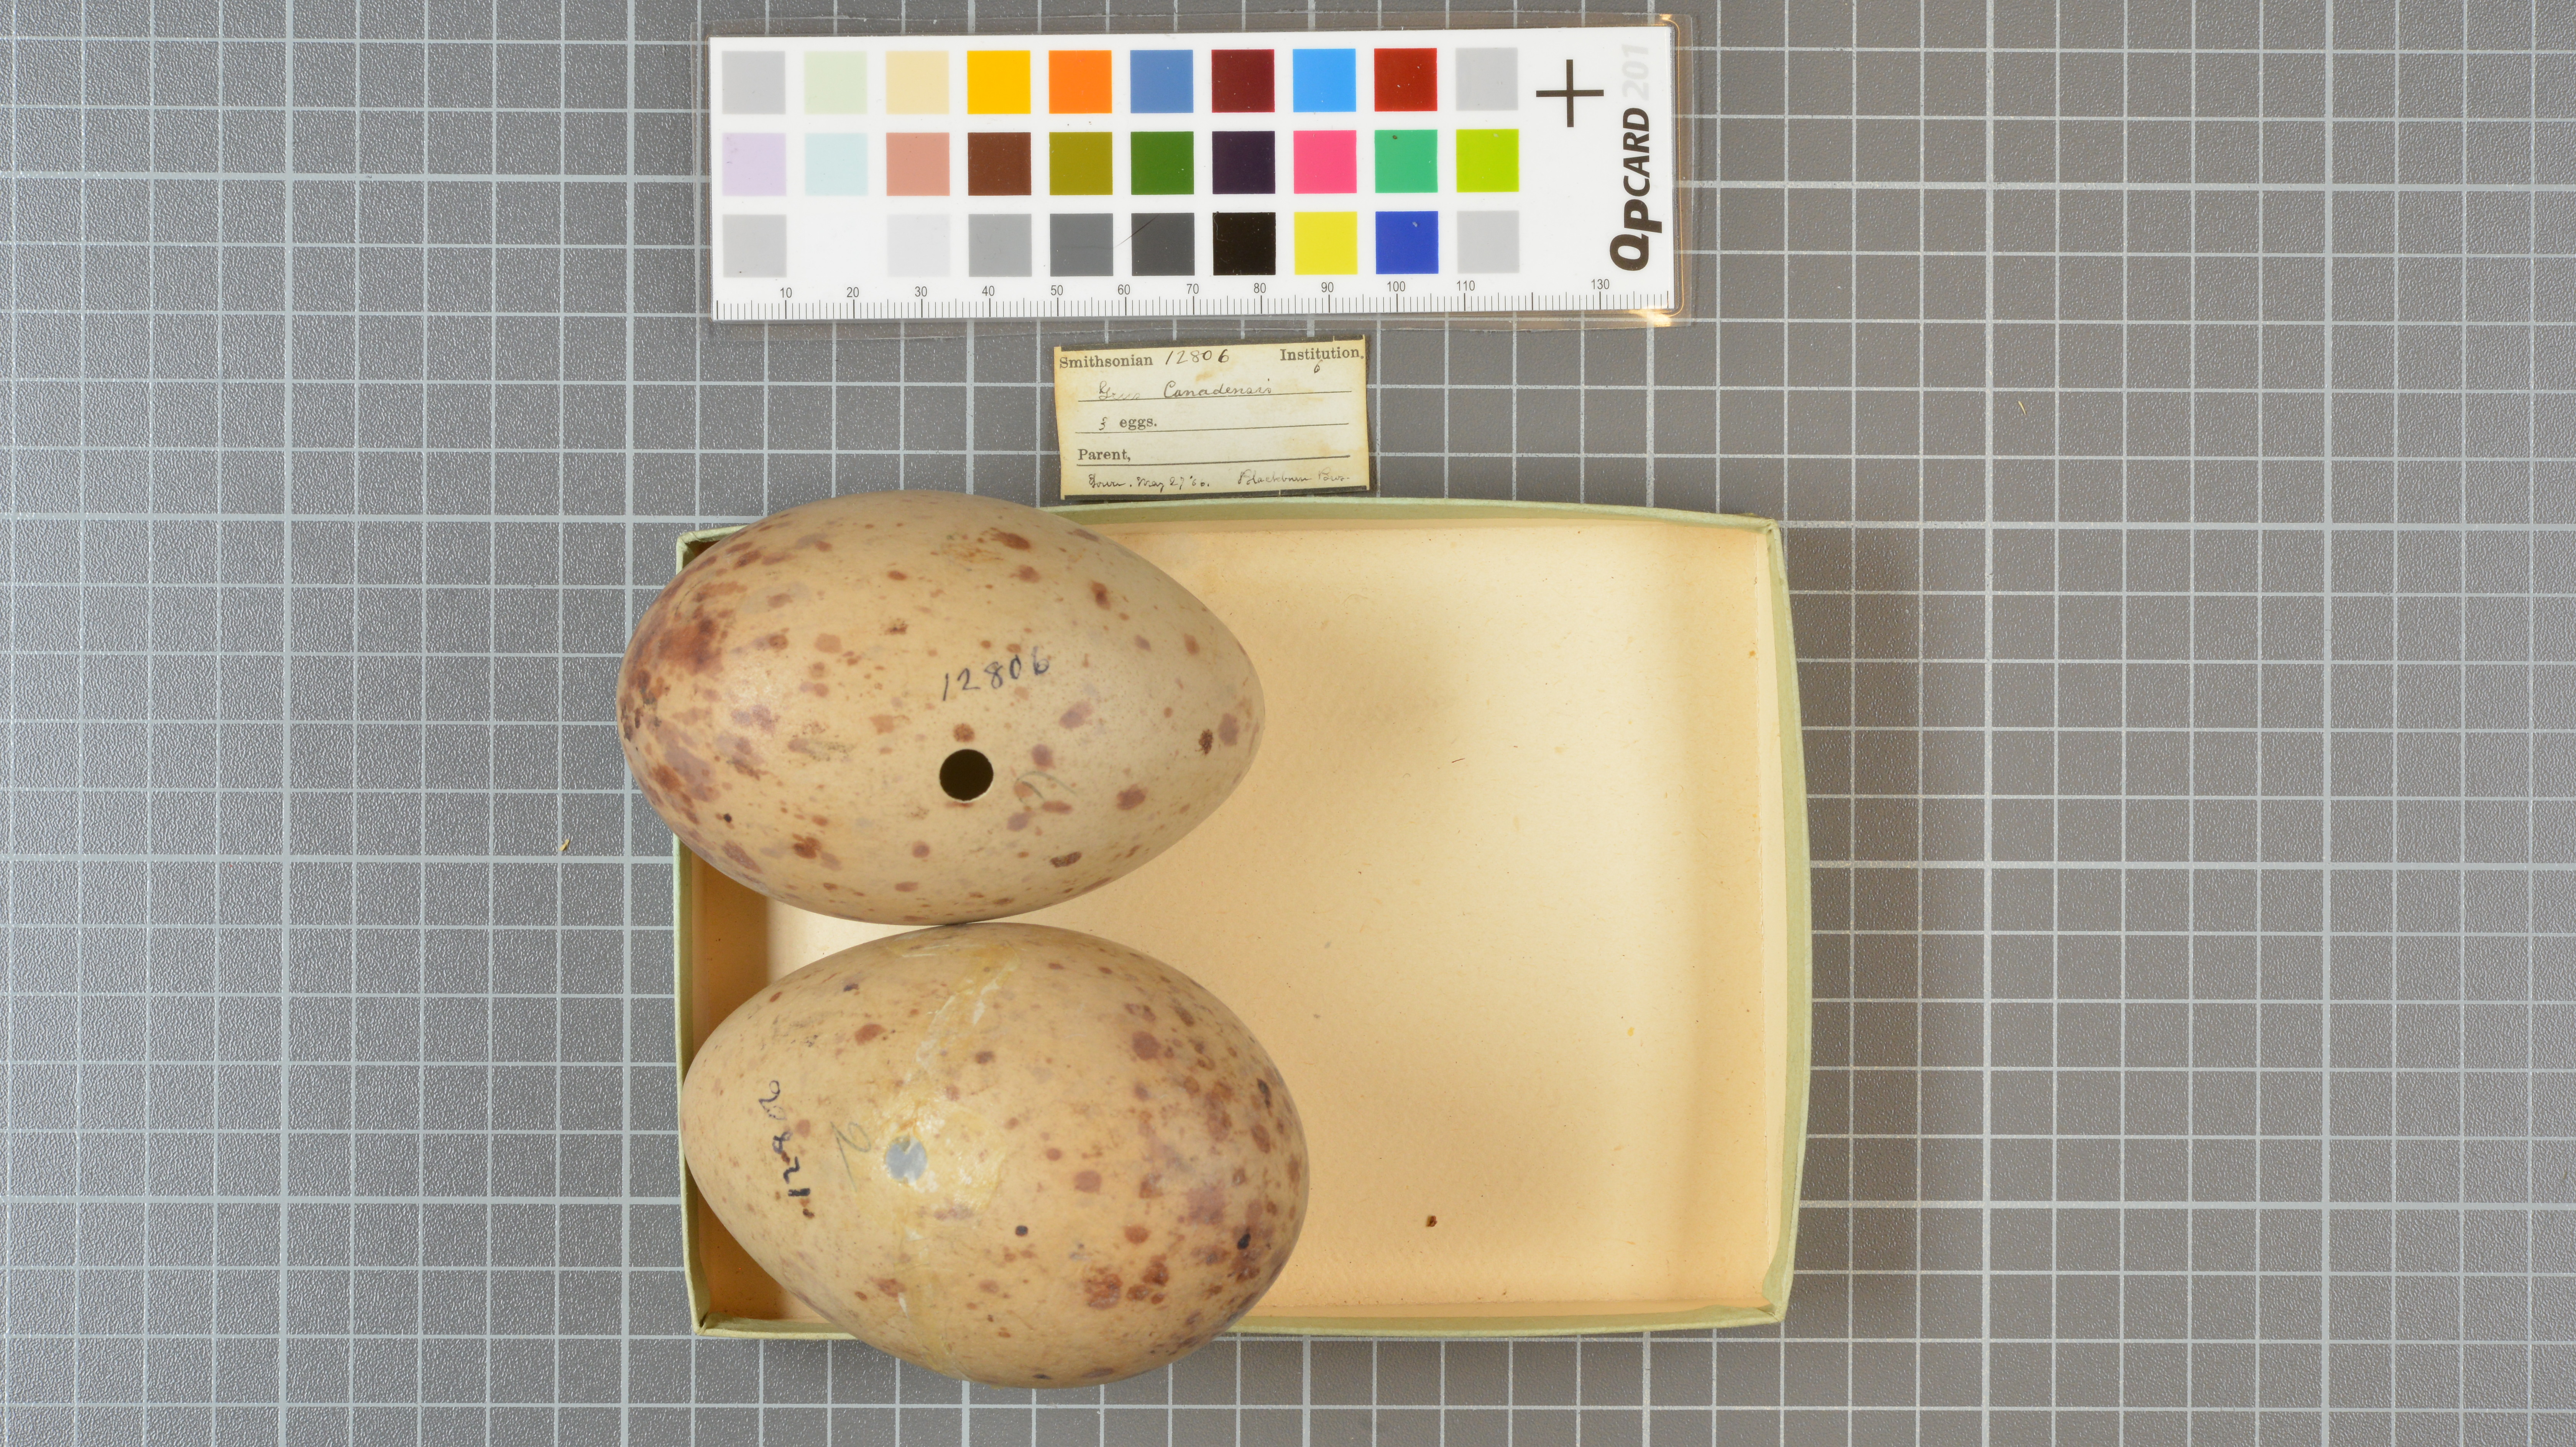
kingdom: Animalia
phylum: Chordata
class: Aves
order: Gruiformes
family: Gruidae
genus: Grus
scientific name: Grus canadensis
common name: Sandhill crane
